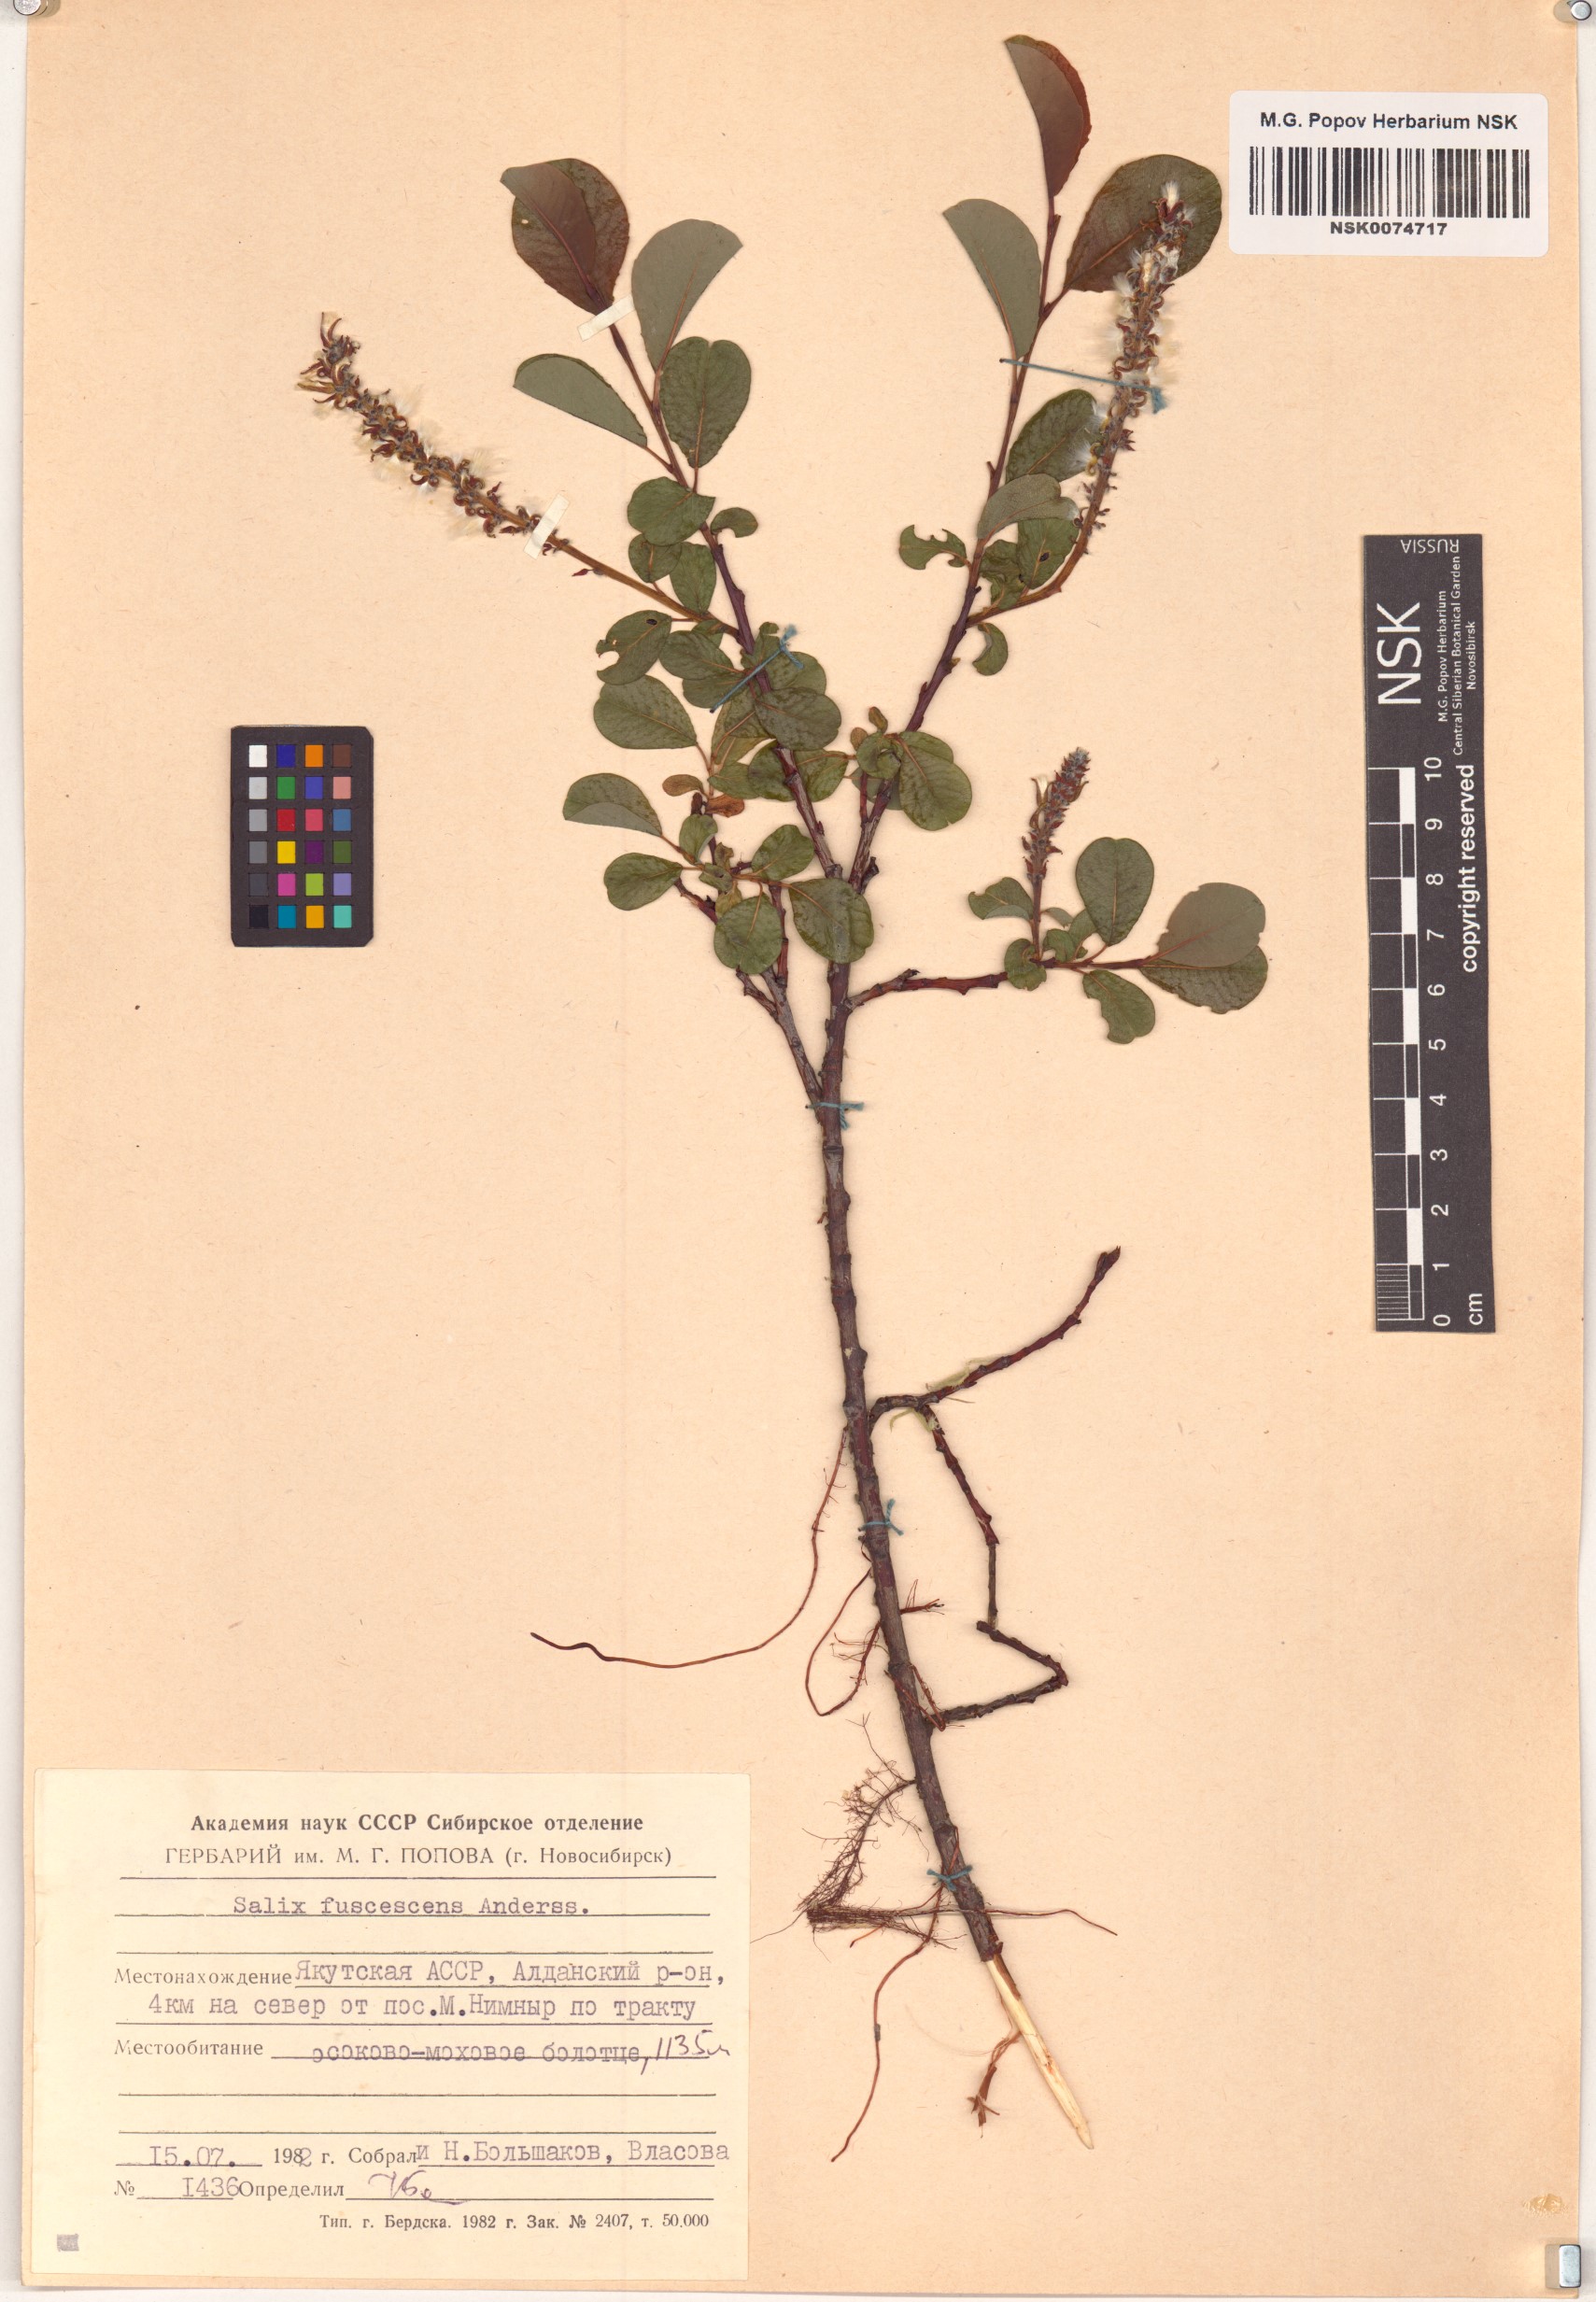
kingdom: Plantae
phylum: Tracheophyta
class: Magnoliopsida
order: Malpighiales
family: Salicaceae
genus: Salix
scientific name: Salix fuscescens
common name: Brownish willow
